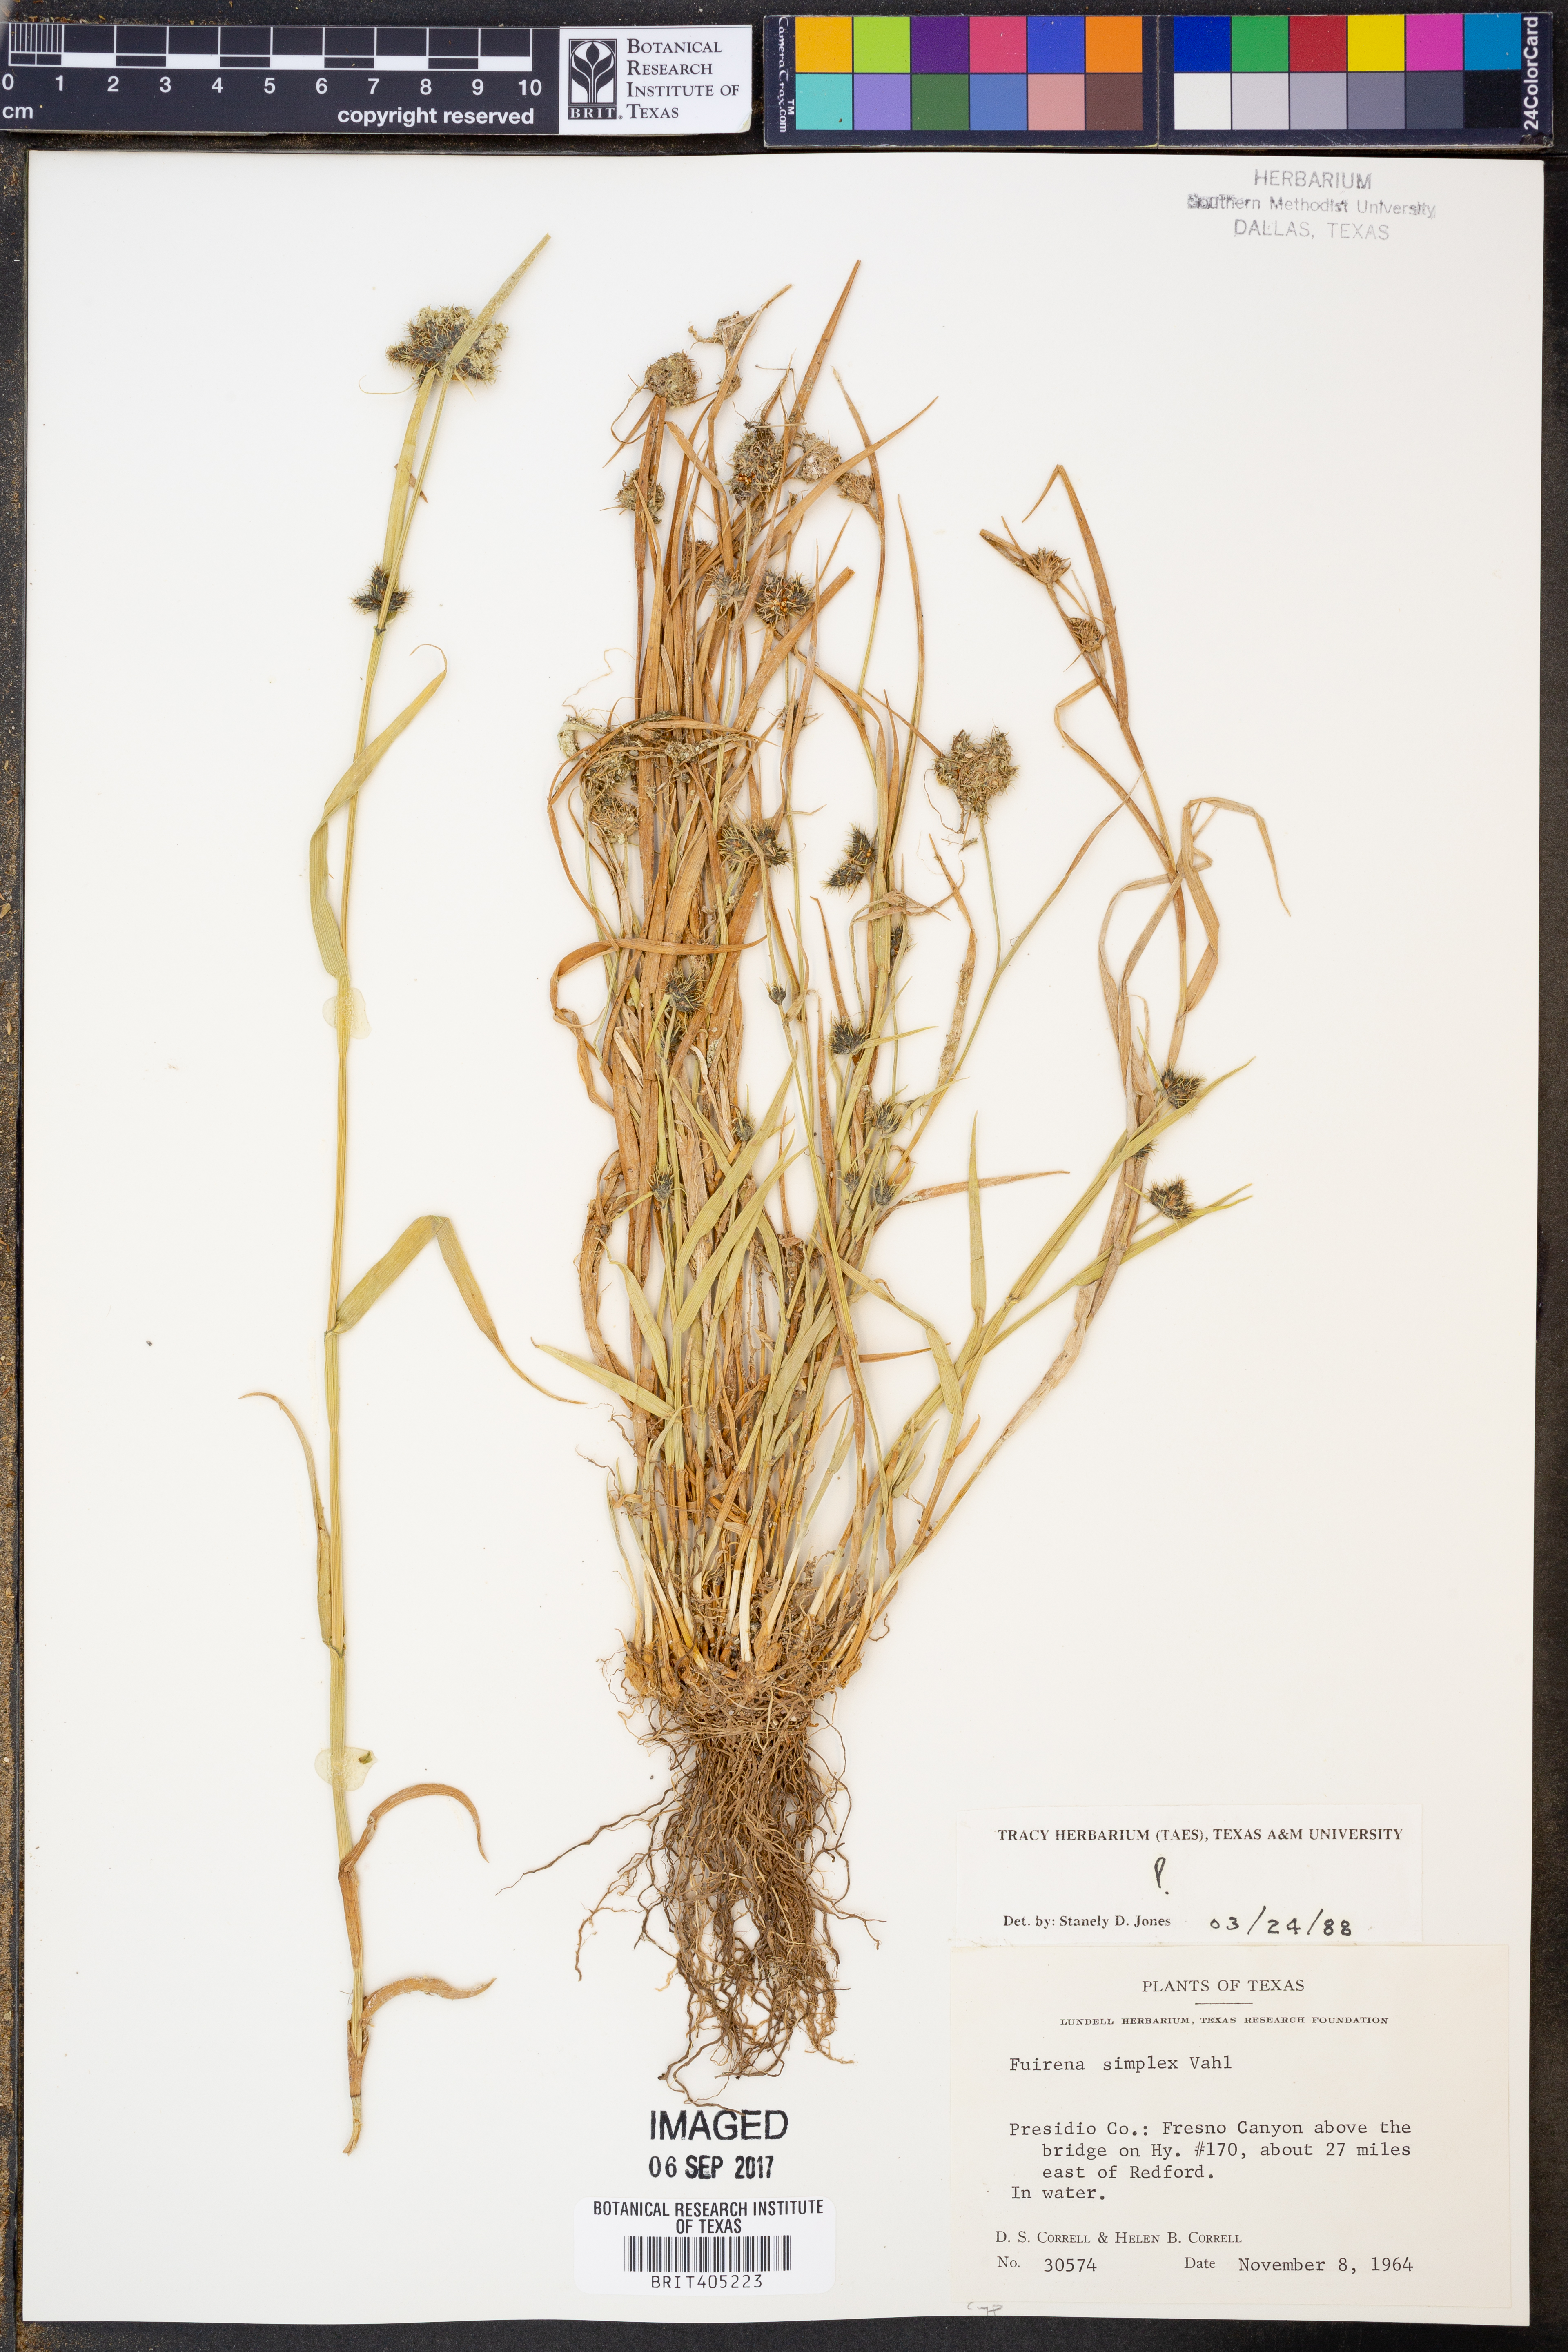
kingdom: Plantae
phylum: Tracheophyta
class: Liliopsida
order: Poales
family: Cyperaceae
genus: Fuirena
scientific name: Fuirena simplex
